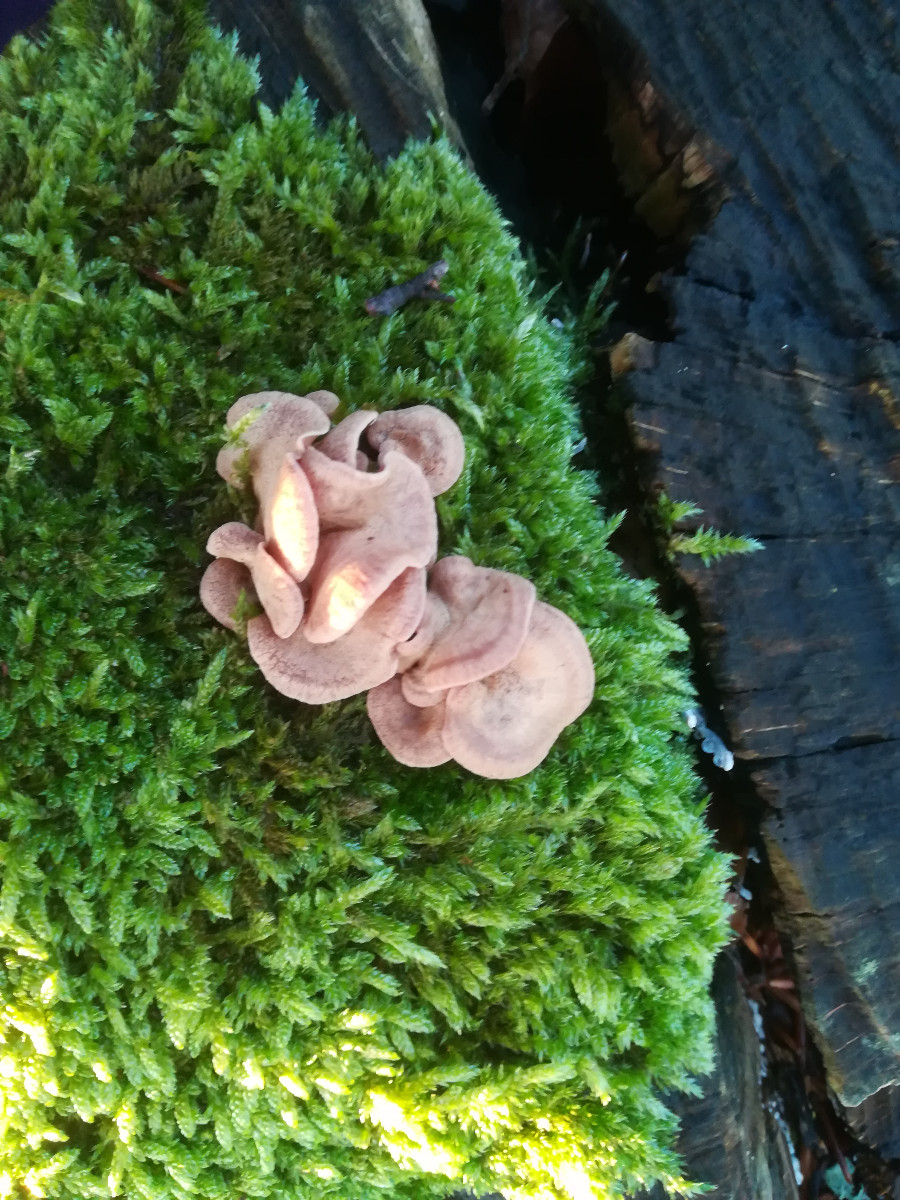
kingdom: Fungi
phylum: Basidiomycota
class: Agaricomycetes
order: Agaricales
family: Mycenaceae
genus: Panellus
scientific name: Panellus stipticus
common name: kliddet epaulethat
